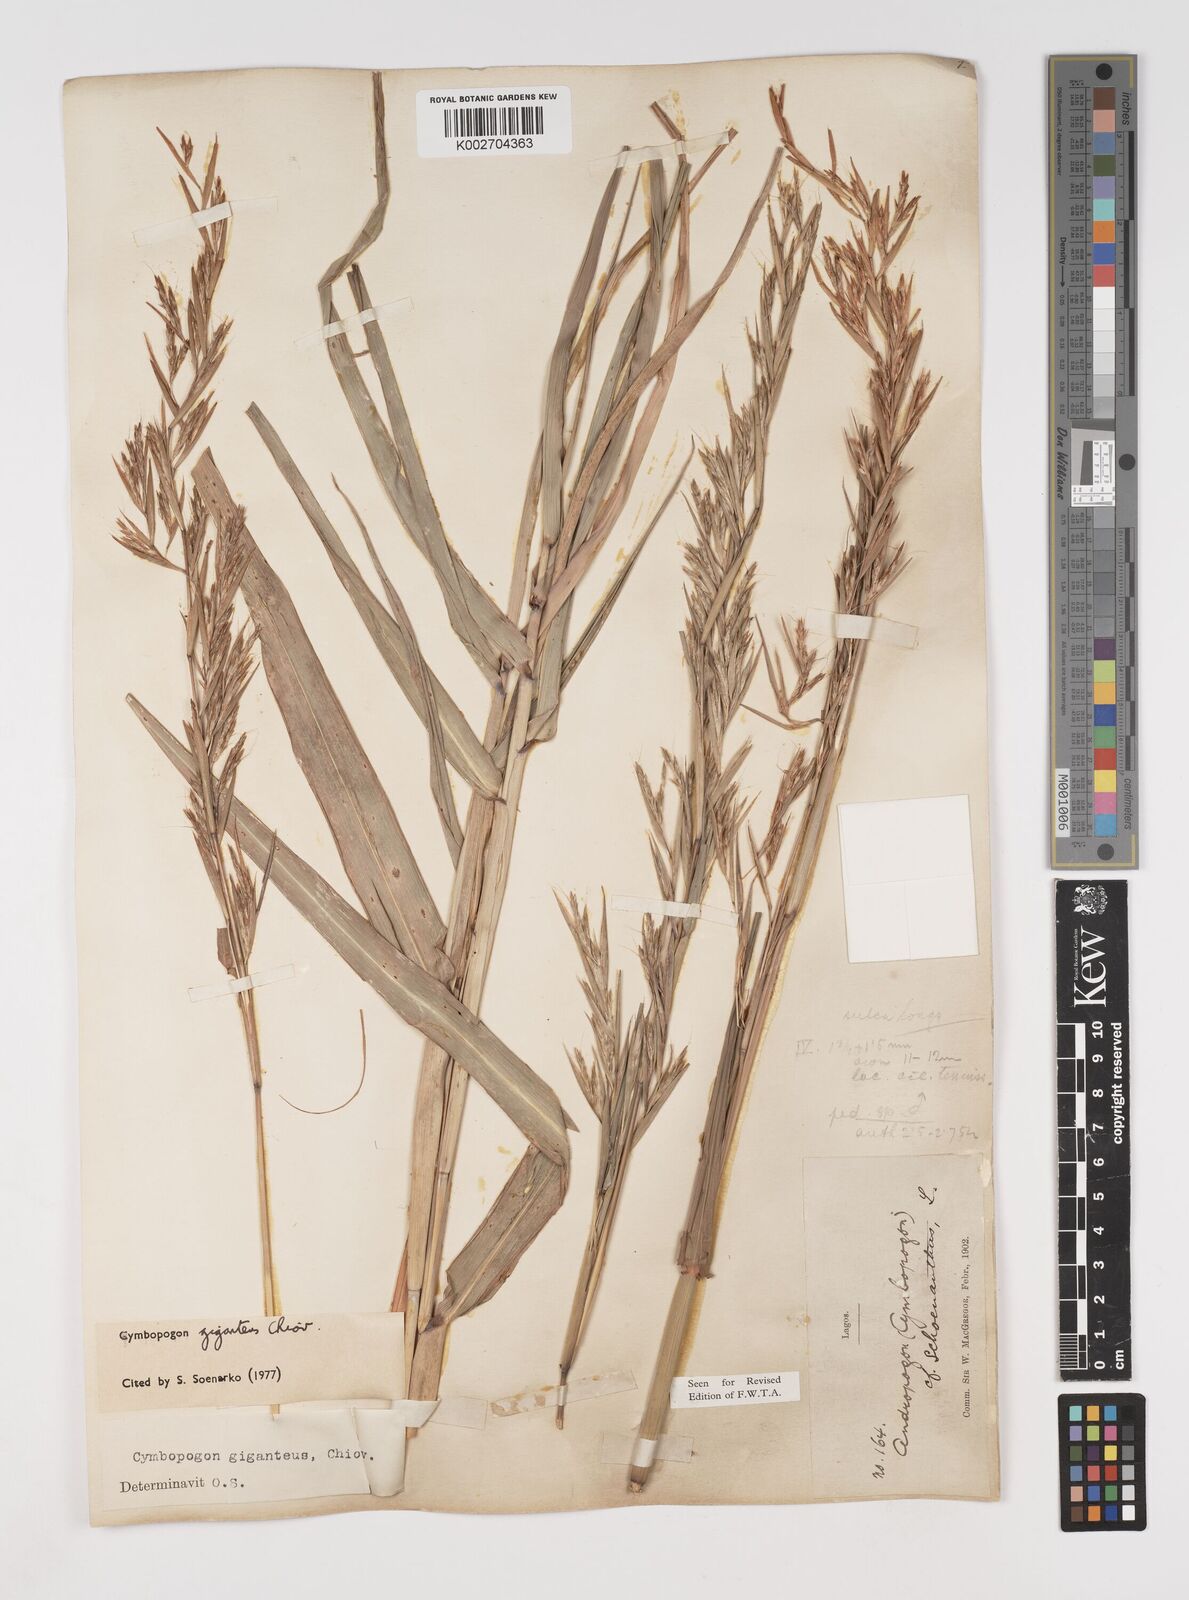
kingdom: Plantae
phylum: Tracheophyta
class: Liliopsida
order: Poales
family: Poaceae
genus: Cymbopogon
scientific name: Cymbopogon giganteus
